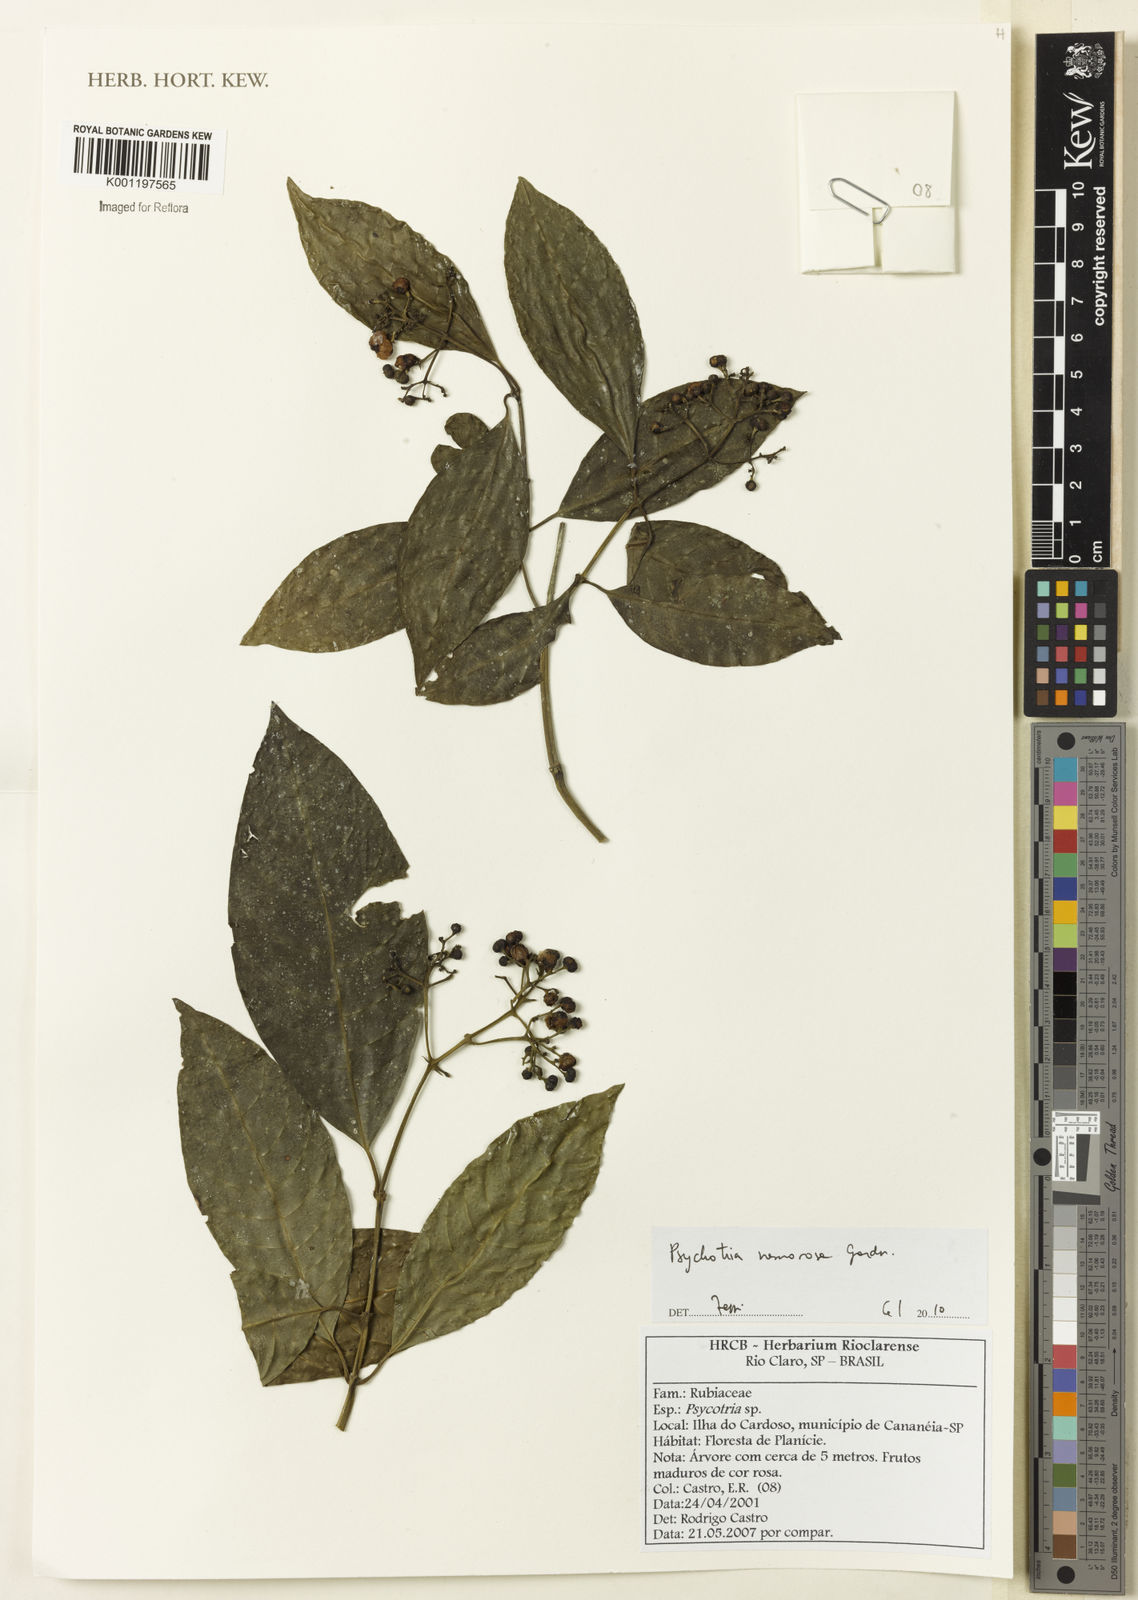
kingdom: Plantae
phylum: Tracheophyta
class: Magnoliopsida
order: Gentianales
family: Rubiaceae
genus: Psychotria
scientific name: Psychotria nemorosa
